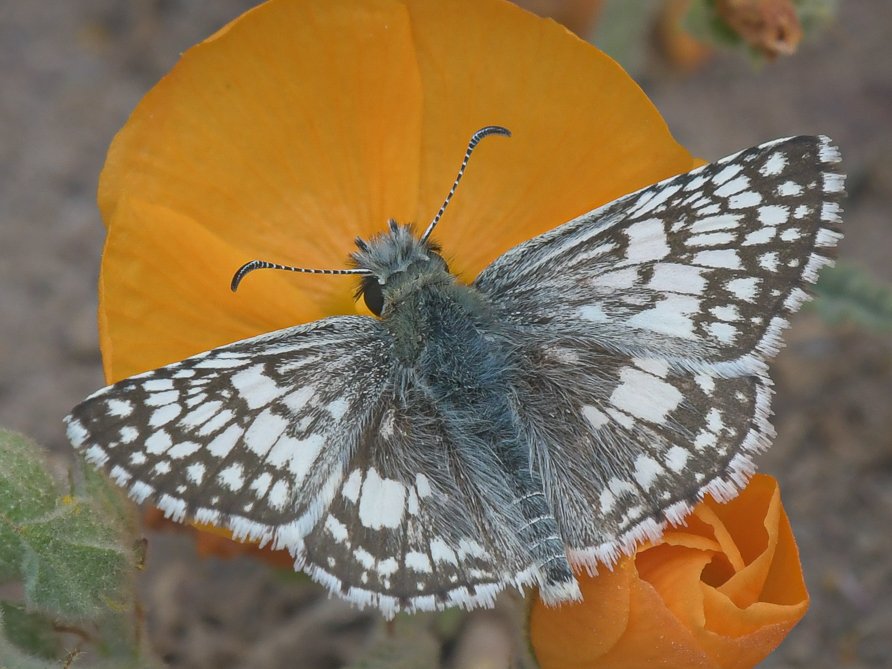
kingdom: Animalia
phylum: Arthropoda
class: Insecta
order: Lepidoptera
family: Hesperiidae
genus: Pyrgus
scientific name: Pyrgus communis
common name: White Checkered-Skipper
